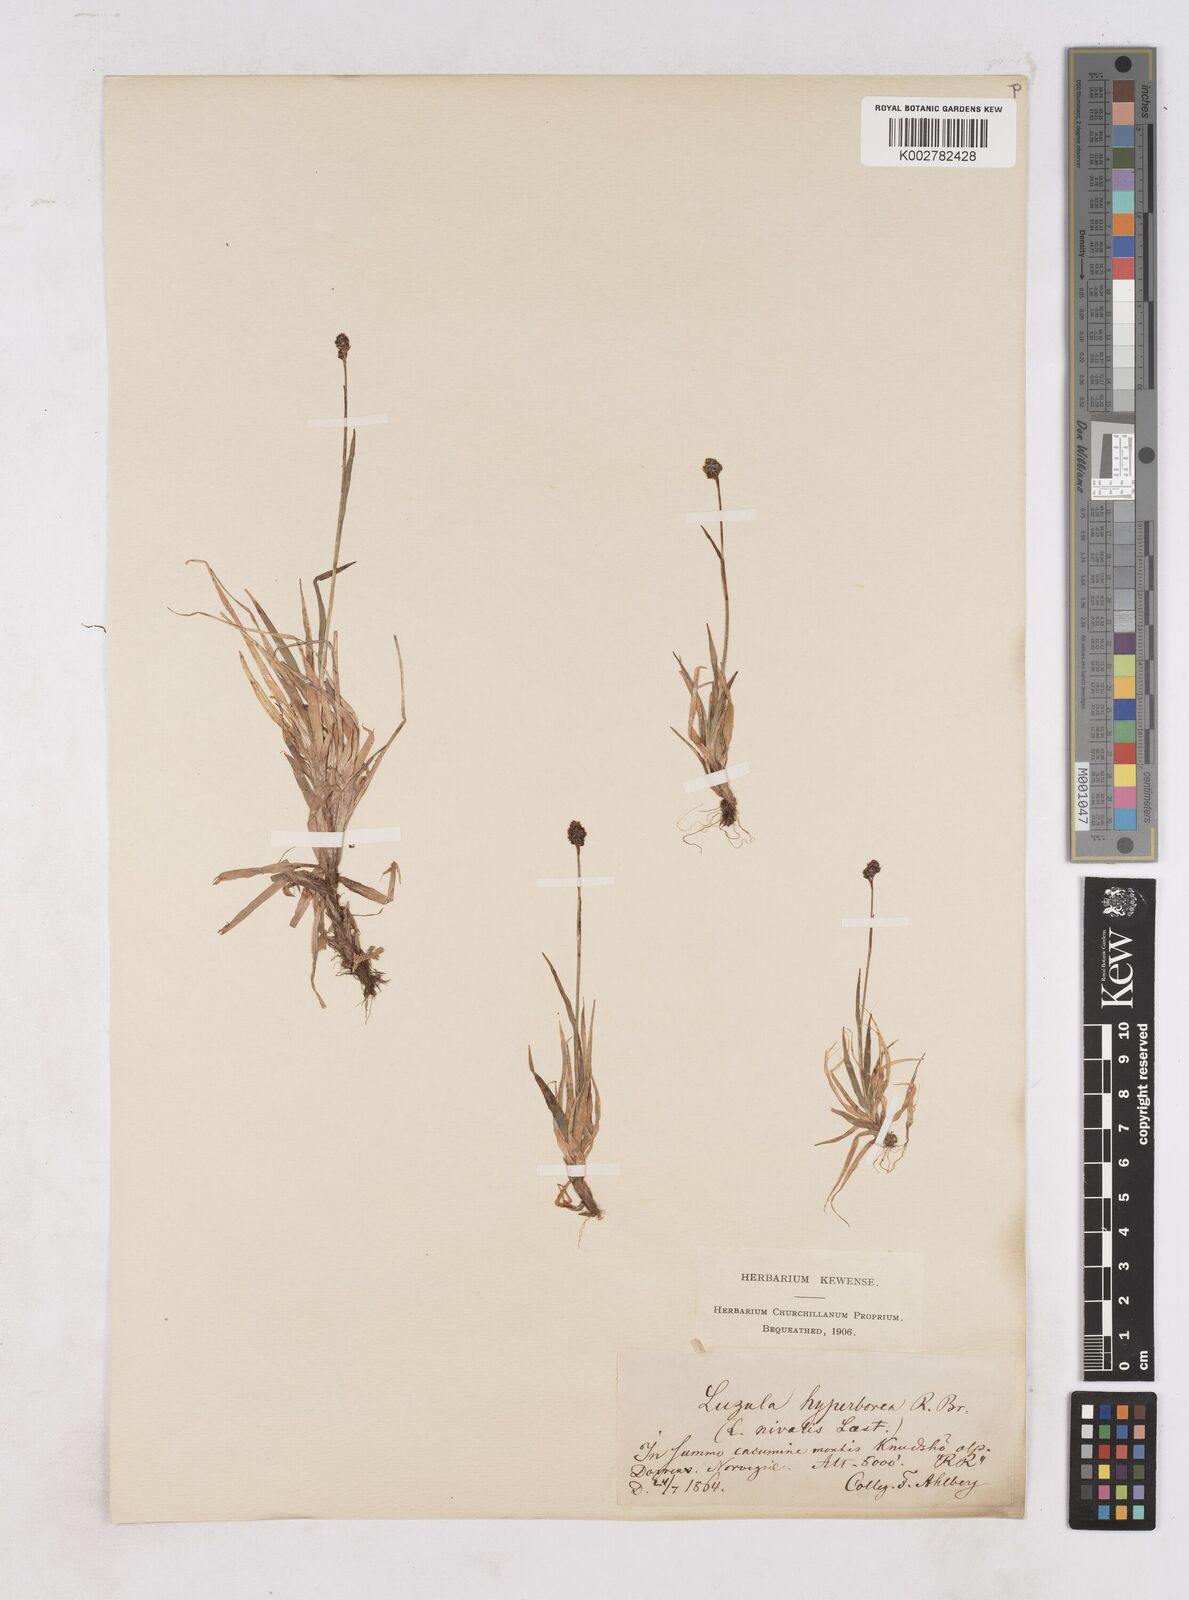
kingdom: Plantae
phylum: Tracheophyta
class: Liliopsida
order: Poales
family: Juncaceae
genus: Luzula
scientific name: Luzula nivalis
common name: Arctic woodrush
